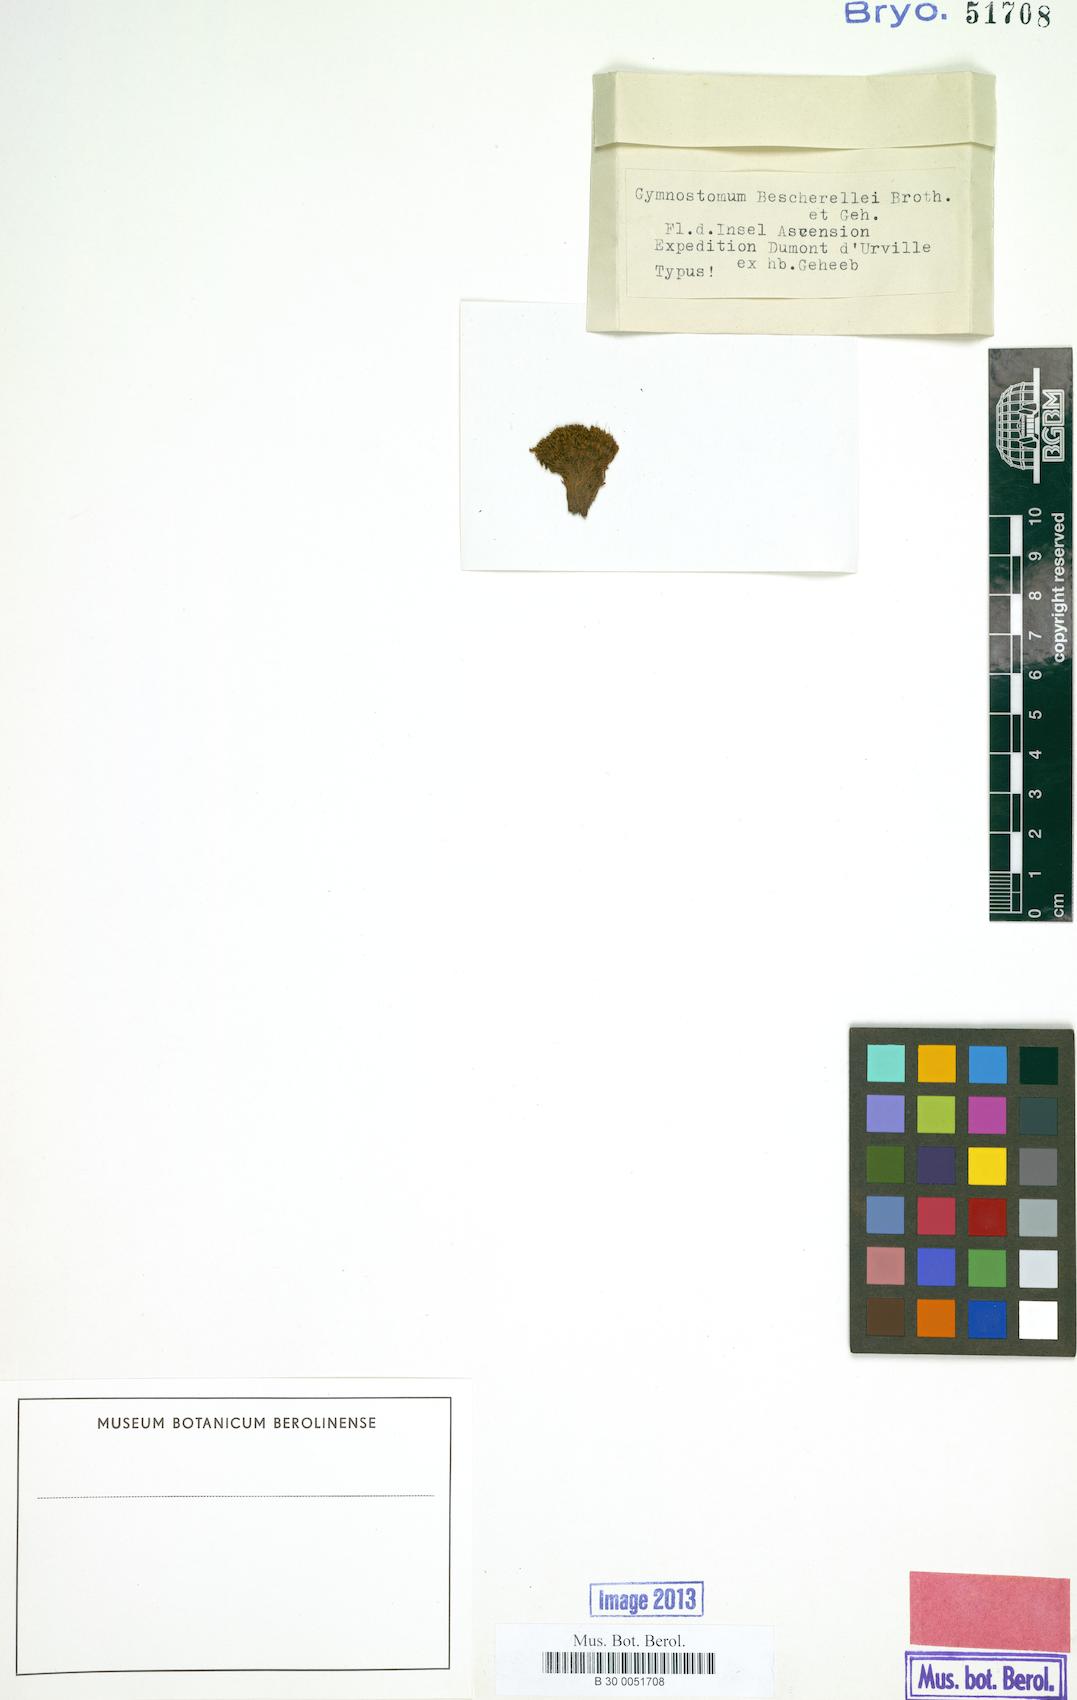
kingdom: Plantae
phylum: Bryophyta
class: Bryopsida
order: Pottiales
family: Pottiaceae
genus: Gymnostomum
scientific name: Gymnostomum bescherellei
